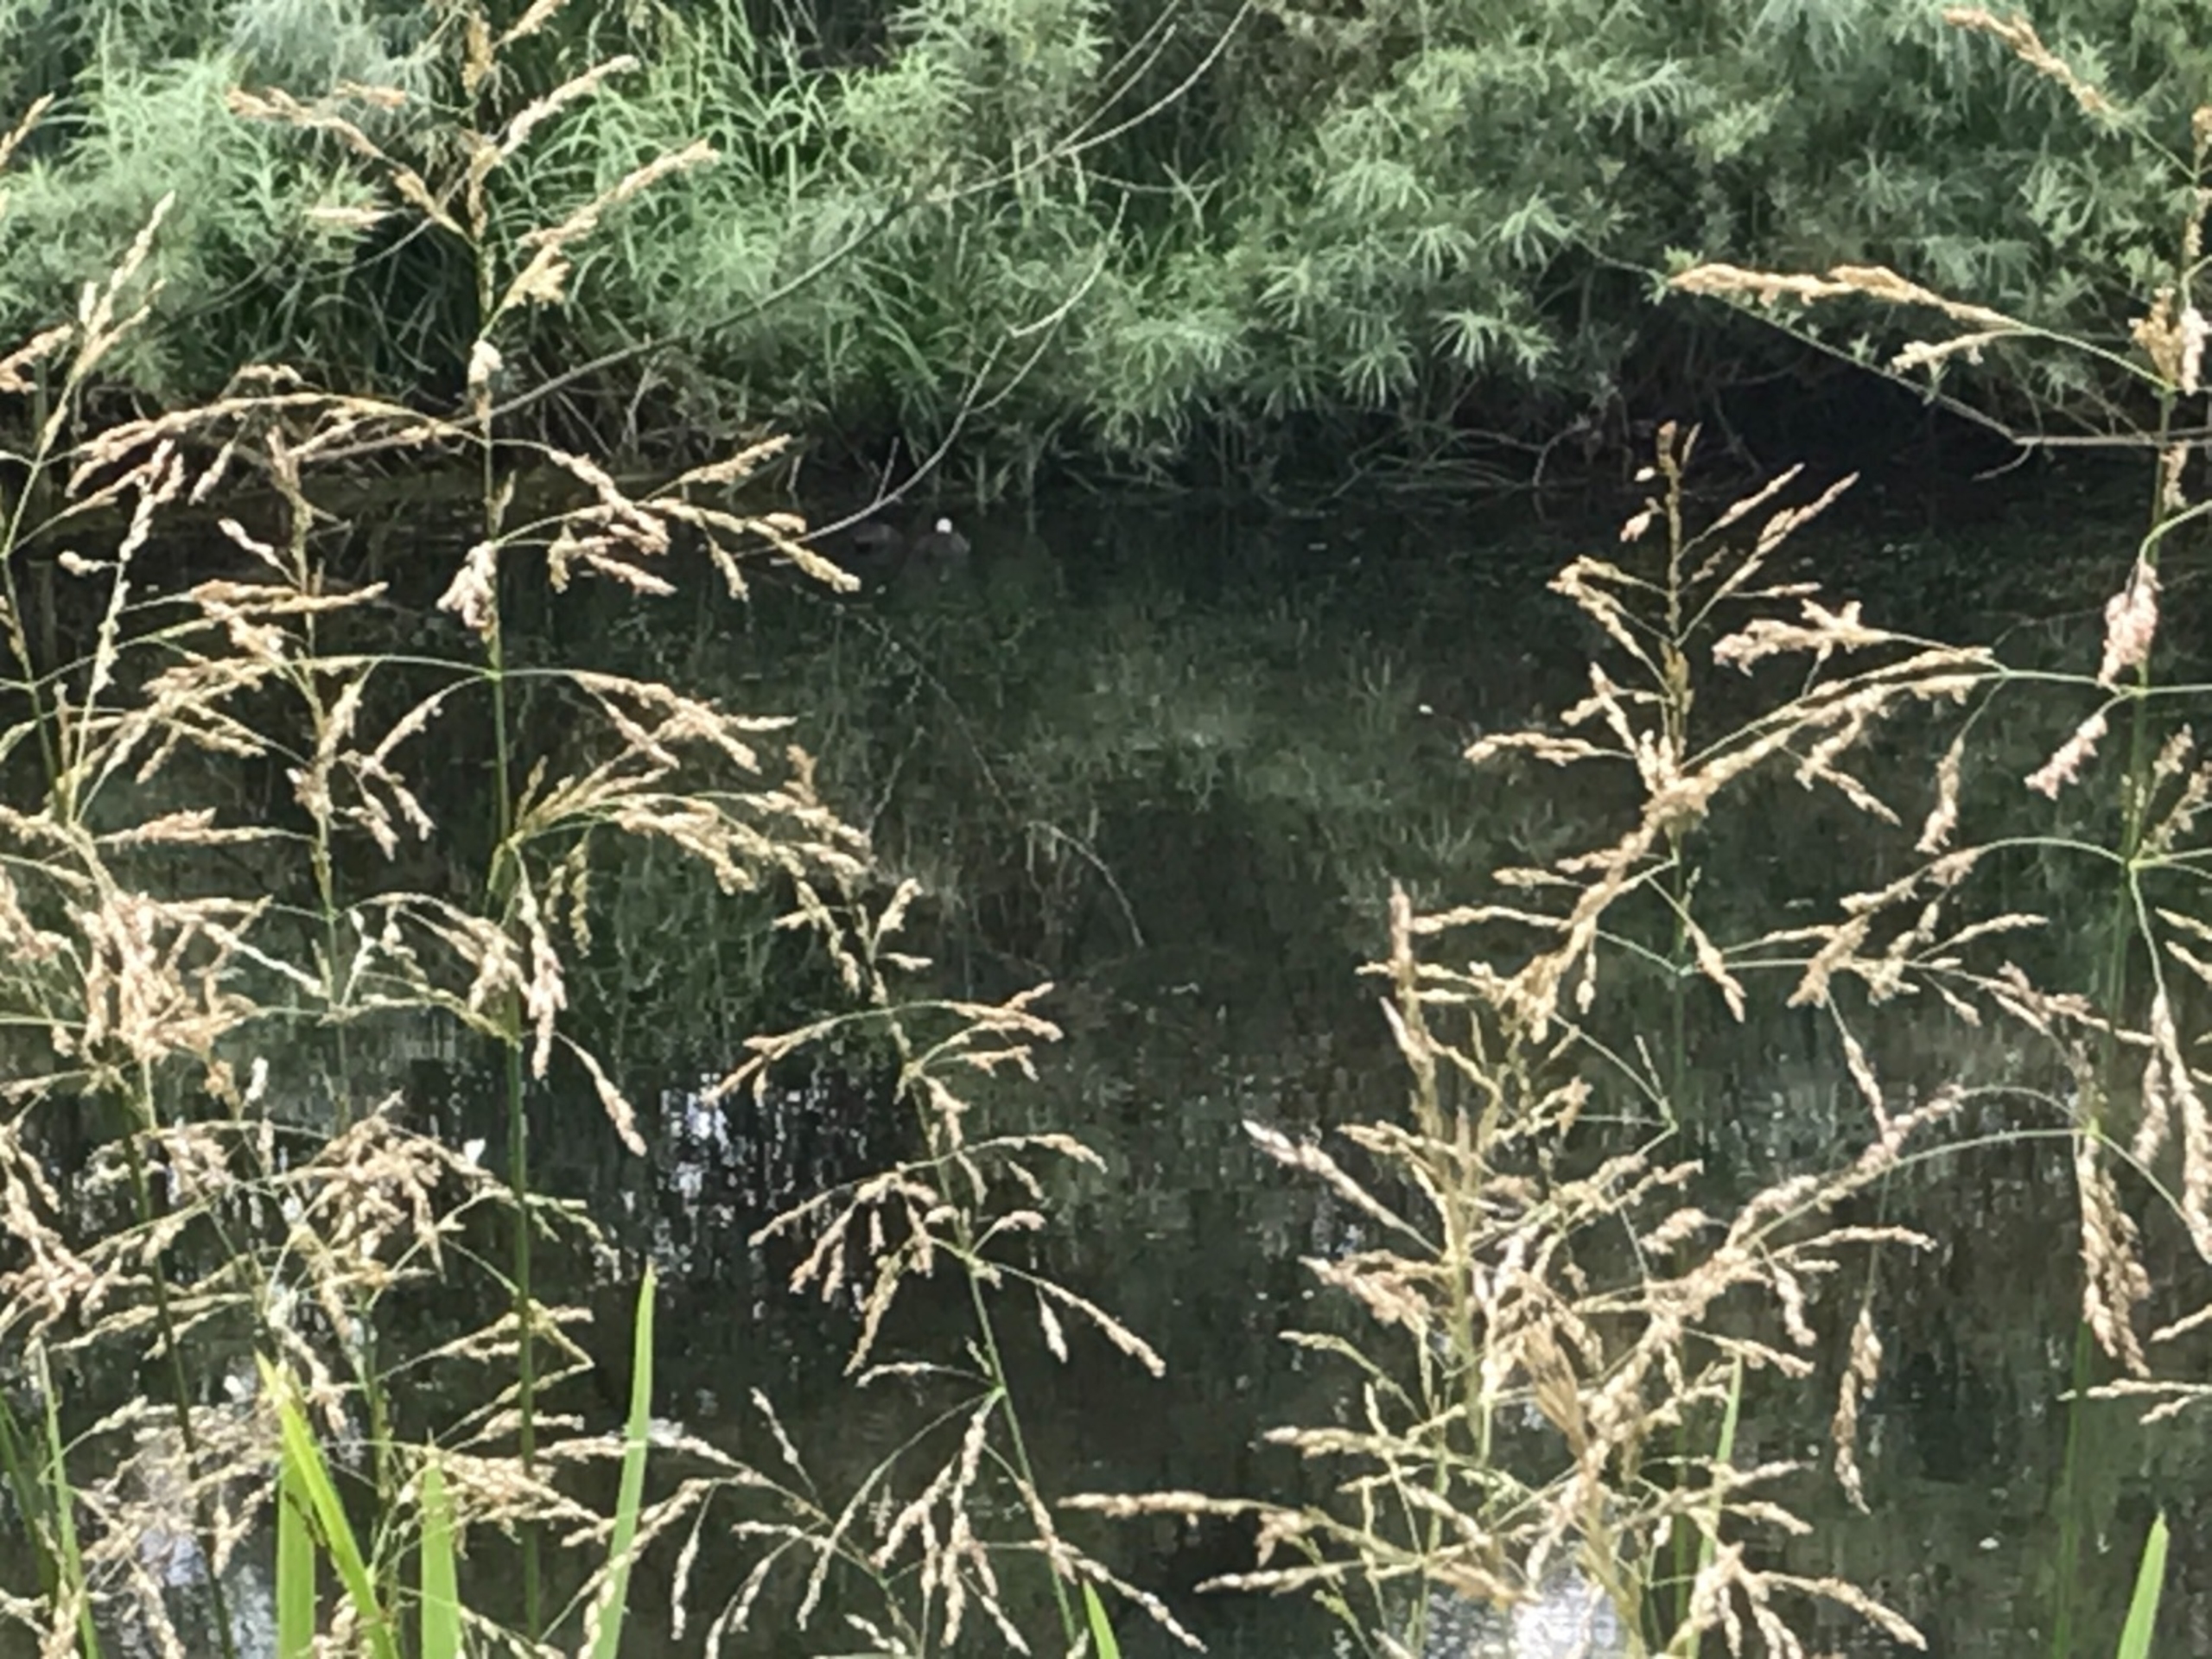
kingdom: Animalia
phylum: Chordata
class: Aves
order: Gruiformes
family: Rallidae
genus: Fulica
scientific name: Fulica atra
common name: Blishøne
